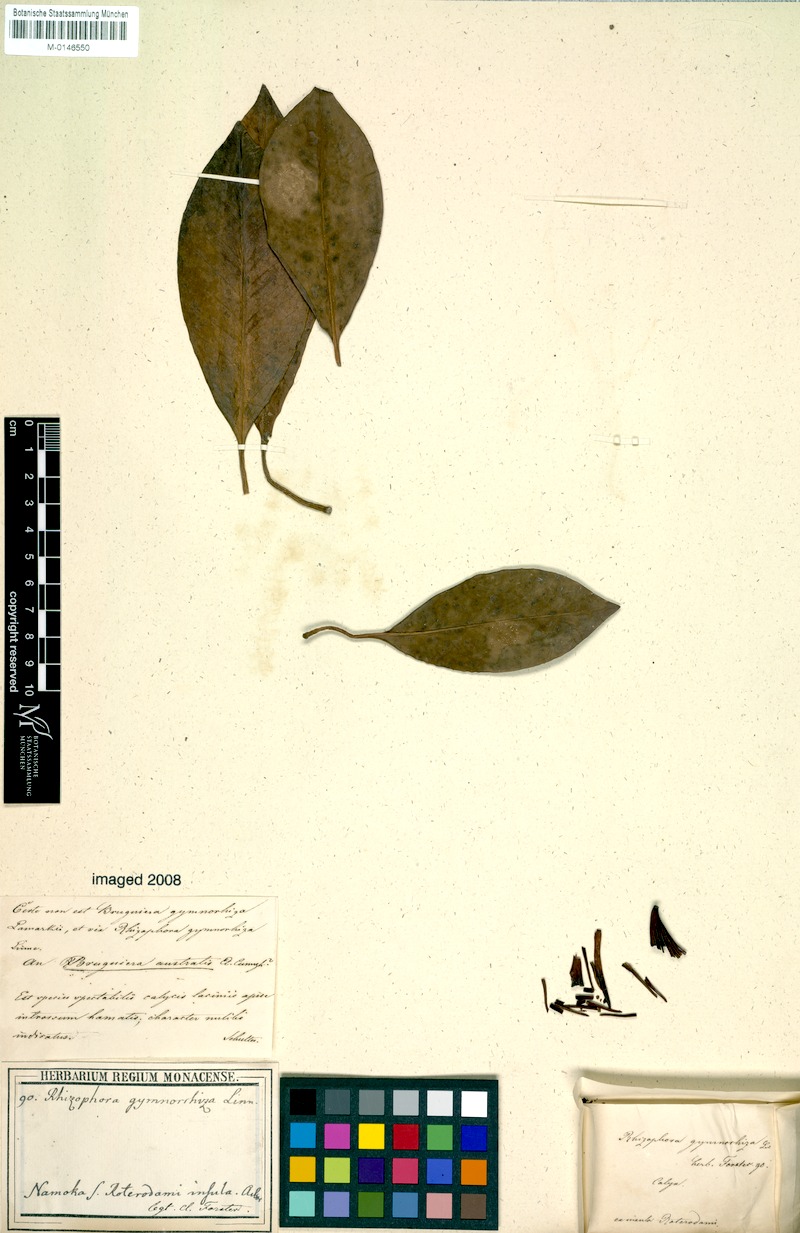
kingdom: Plantae
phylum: Tracheophyta
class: Magnoliopsida
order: Malpighiales
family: Rhizophoraceae
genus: Bruguiera
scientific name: Bruguiera sexangula
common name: Oriental mangrove
